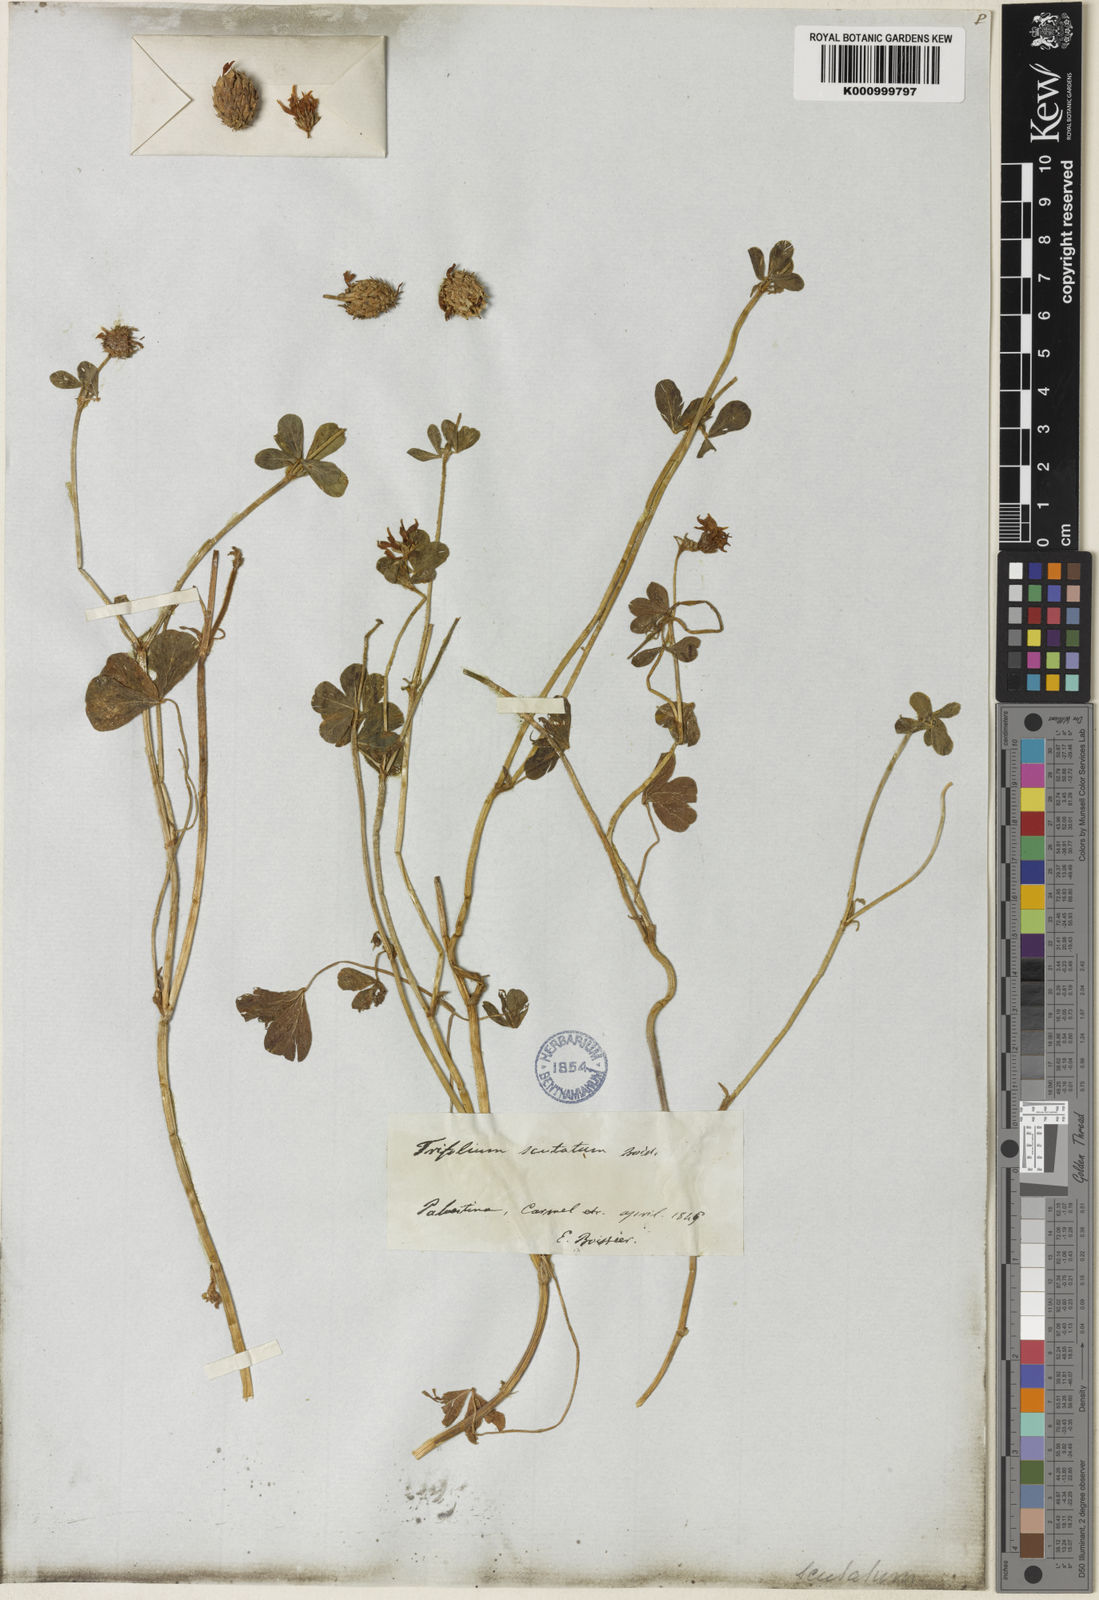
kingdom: Plantae
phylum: Tracheophyta
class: Magnoliopsida
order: Fabales
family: Fabaceae
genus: Trifolium
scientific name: Trifolium scutatum
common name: Shield clover
